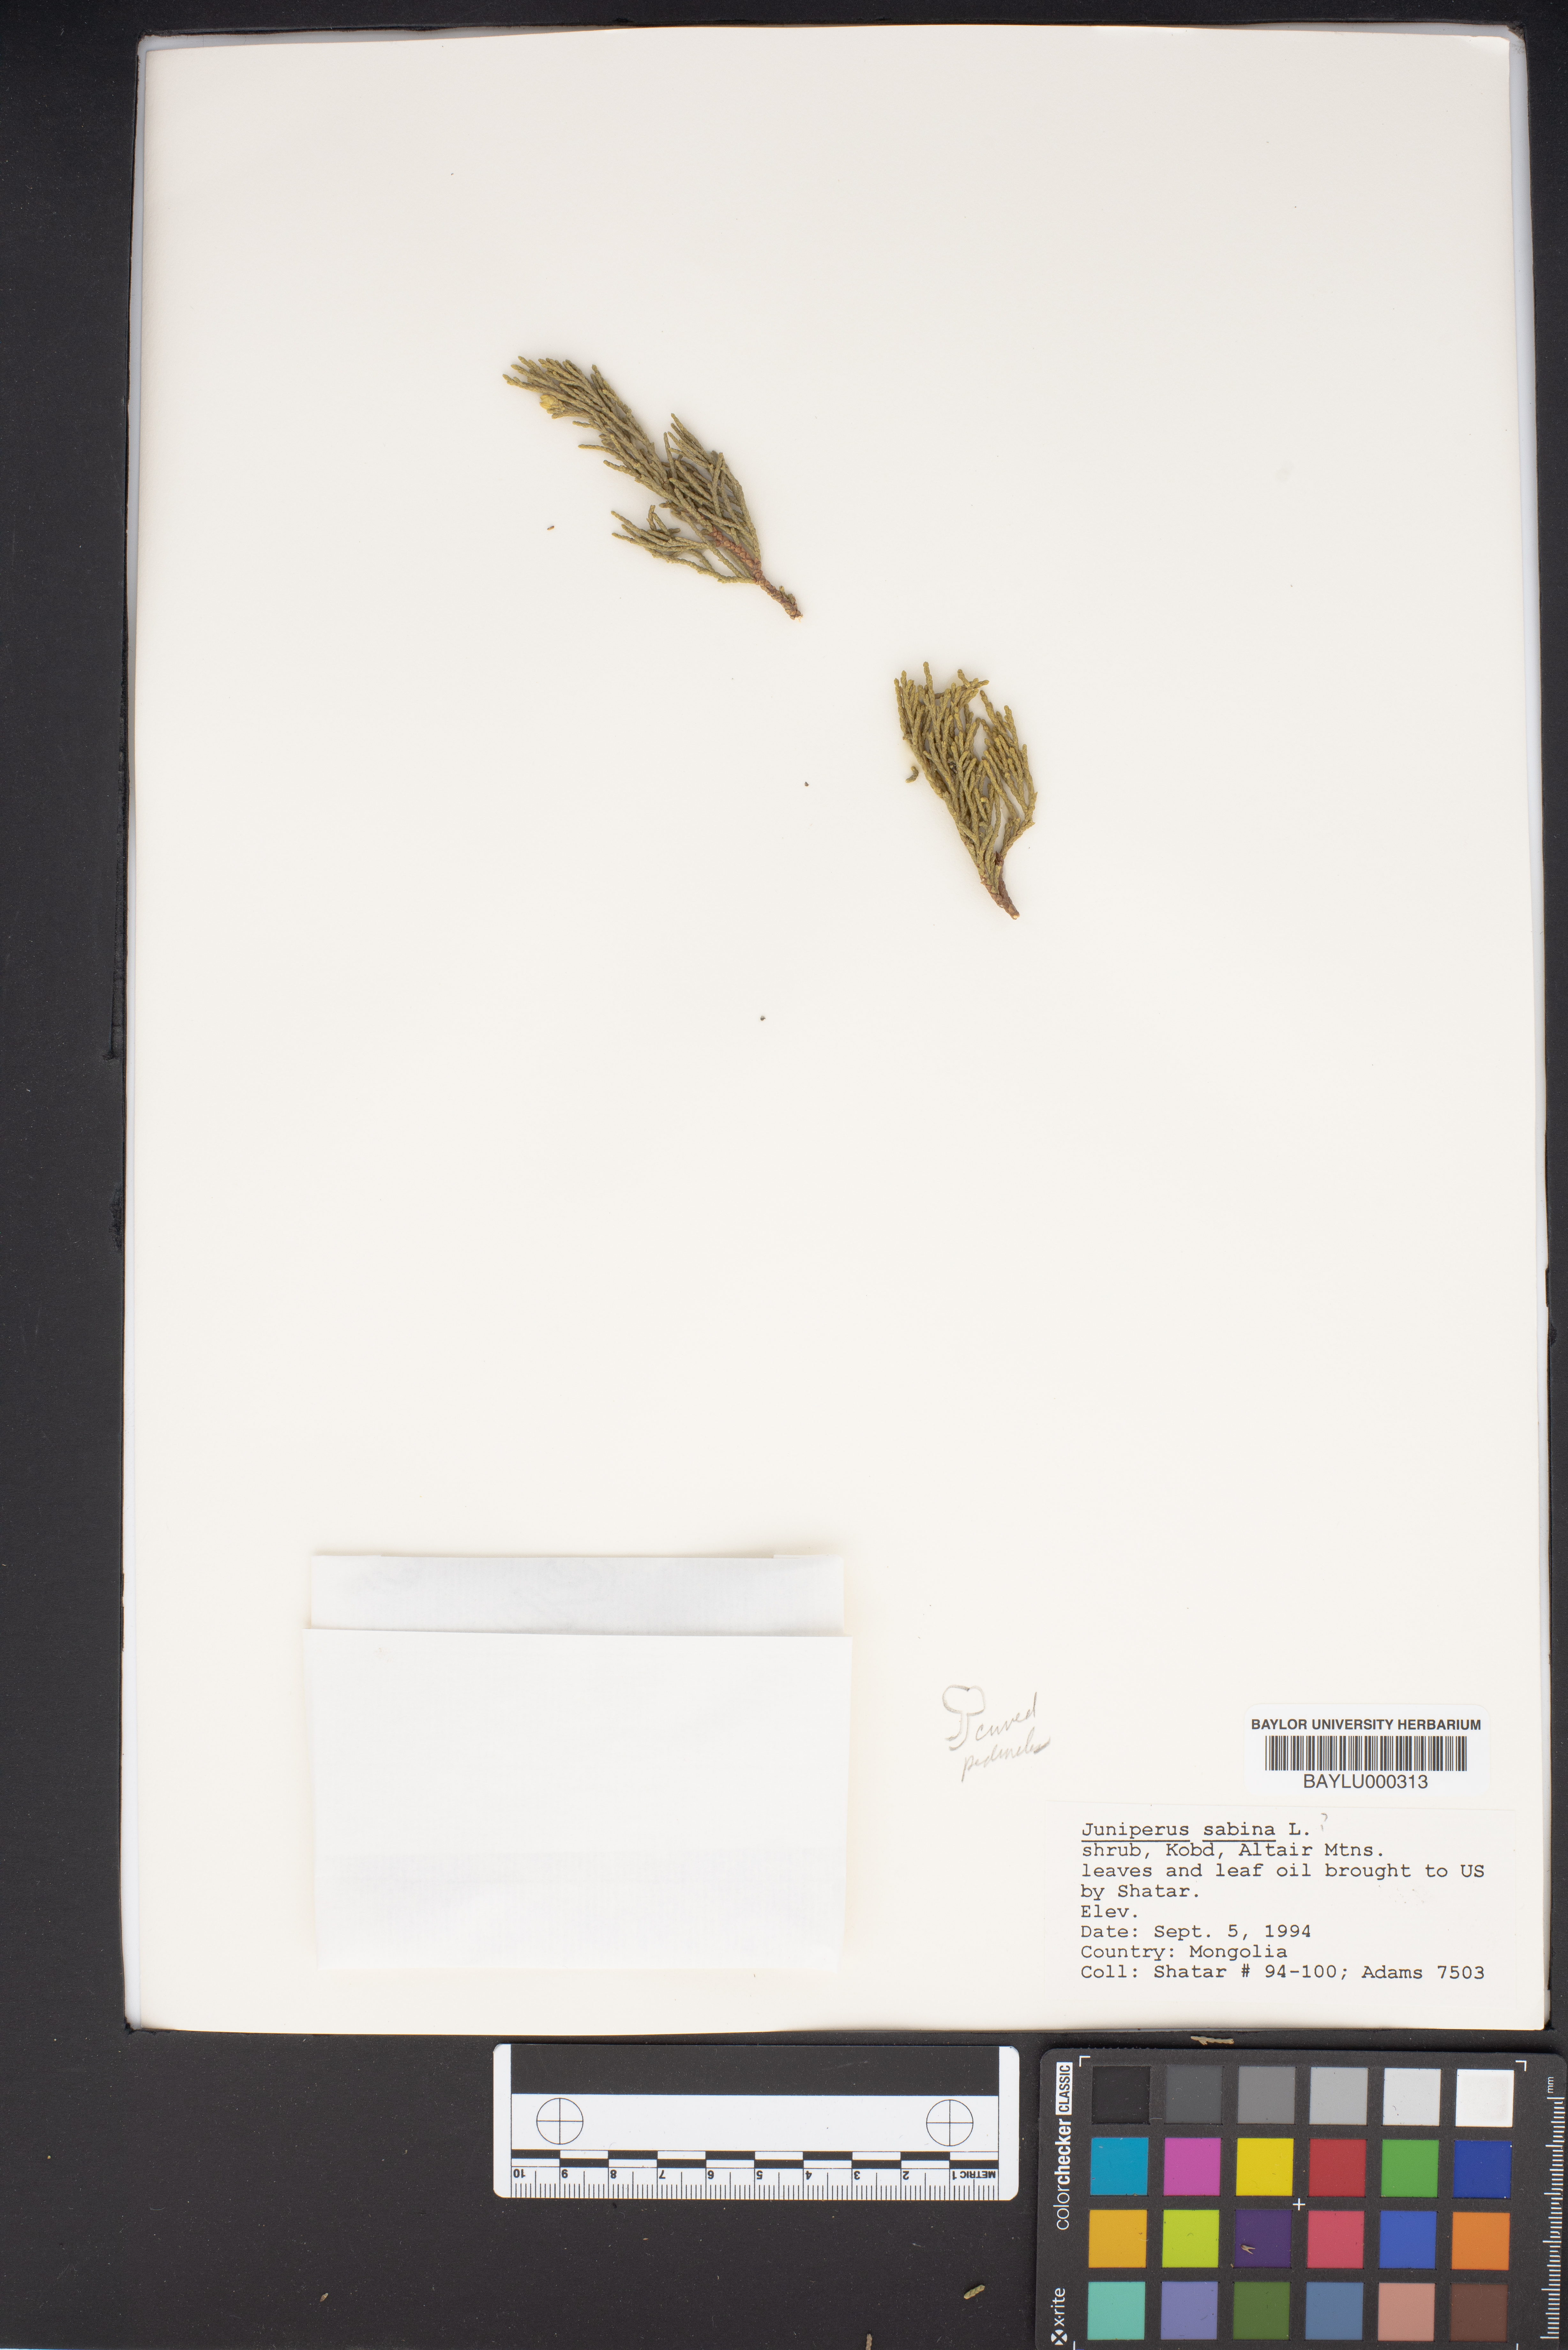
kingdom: Plantae
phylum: Tracheophyta
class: Pinopsida
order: Pinales
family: Cupressaceae
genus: Juniperus
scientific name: Juniperus sabina
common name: Savin
